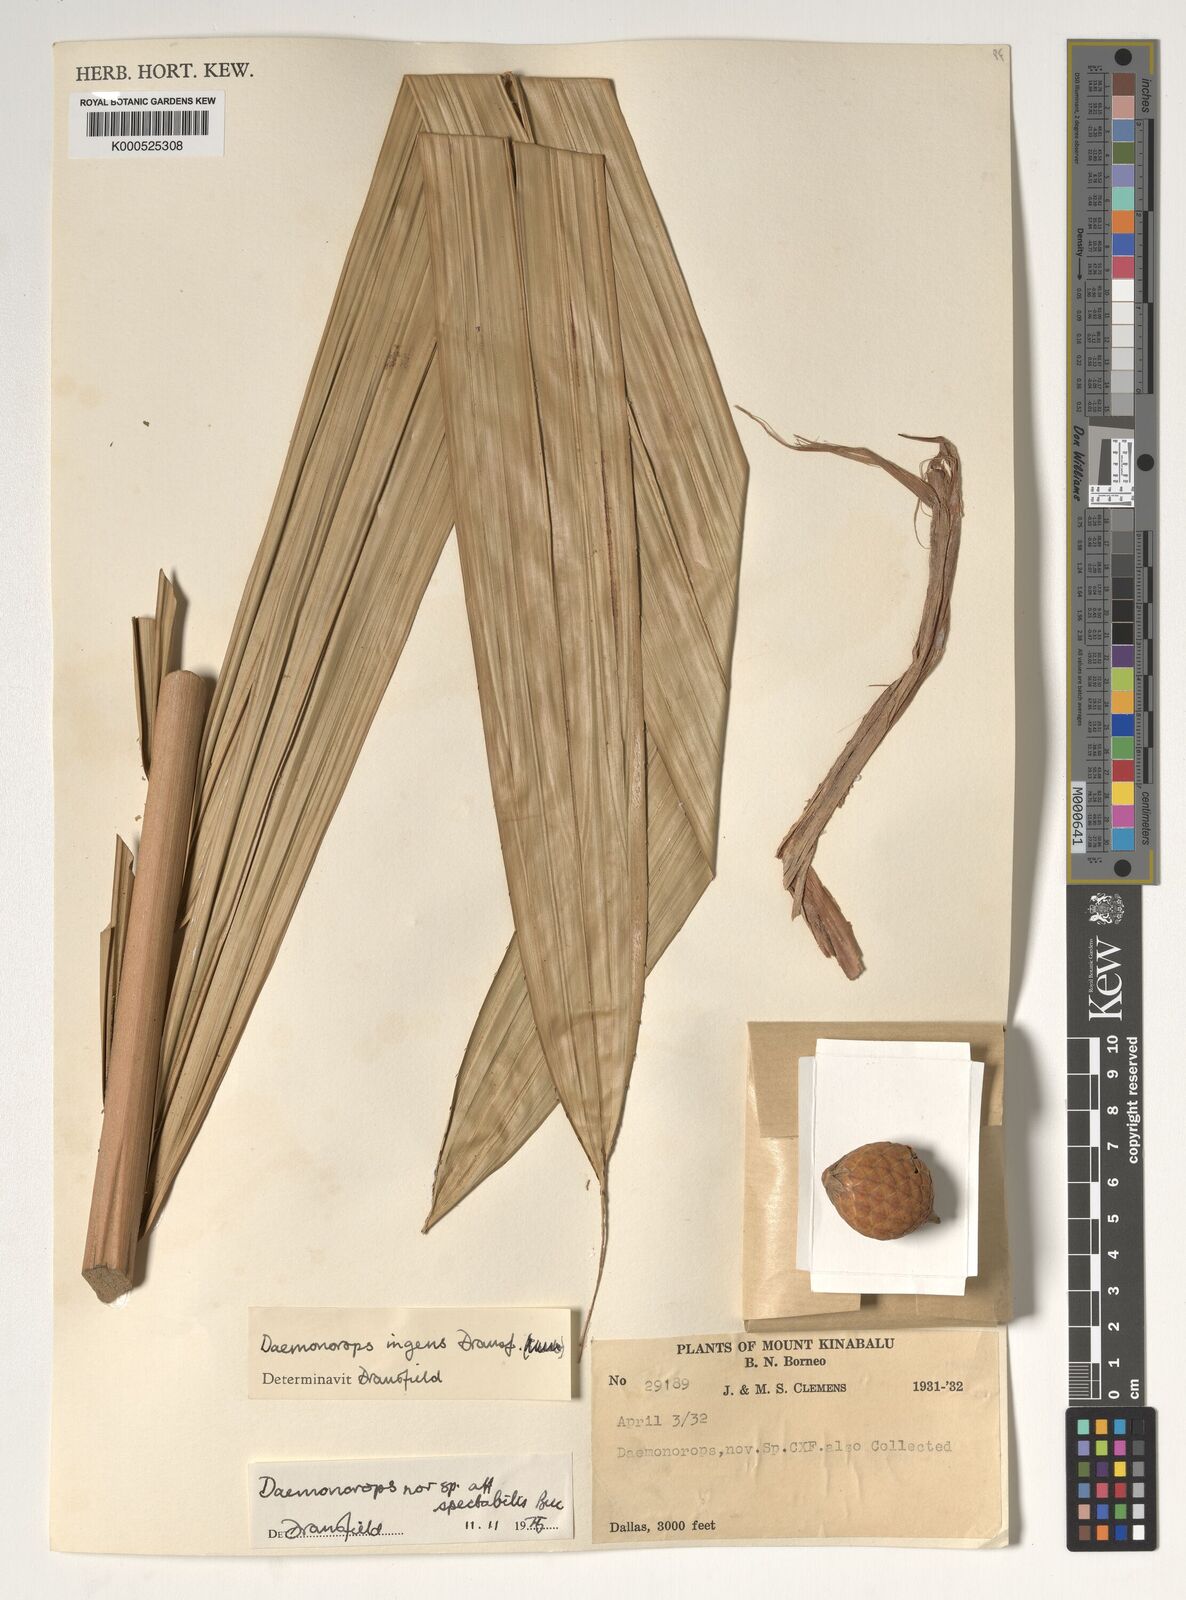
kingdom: Plantae
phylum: Tracheophyta
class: Liliopsida
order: Arecales
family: Arecaceae
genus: Calamus
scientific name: Calamus ingens
